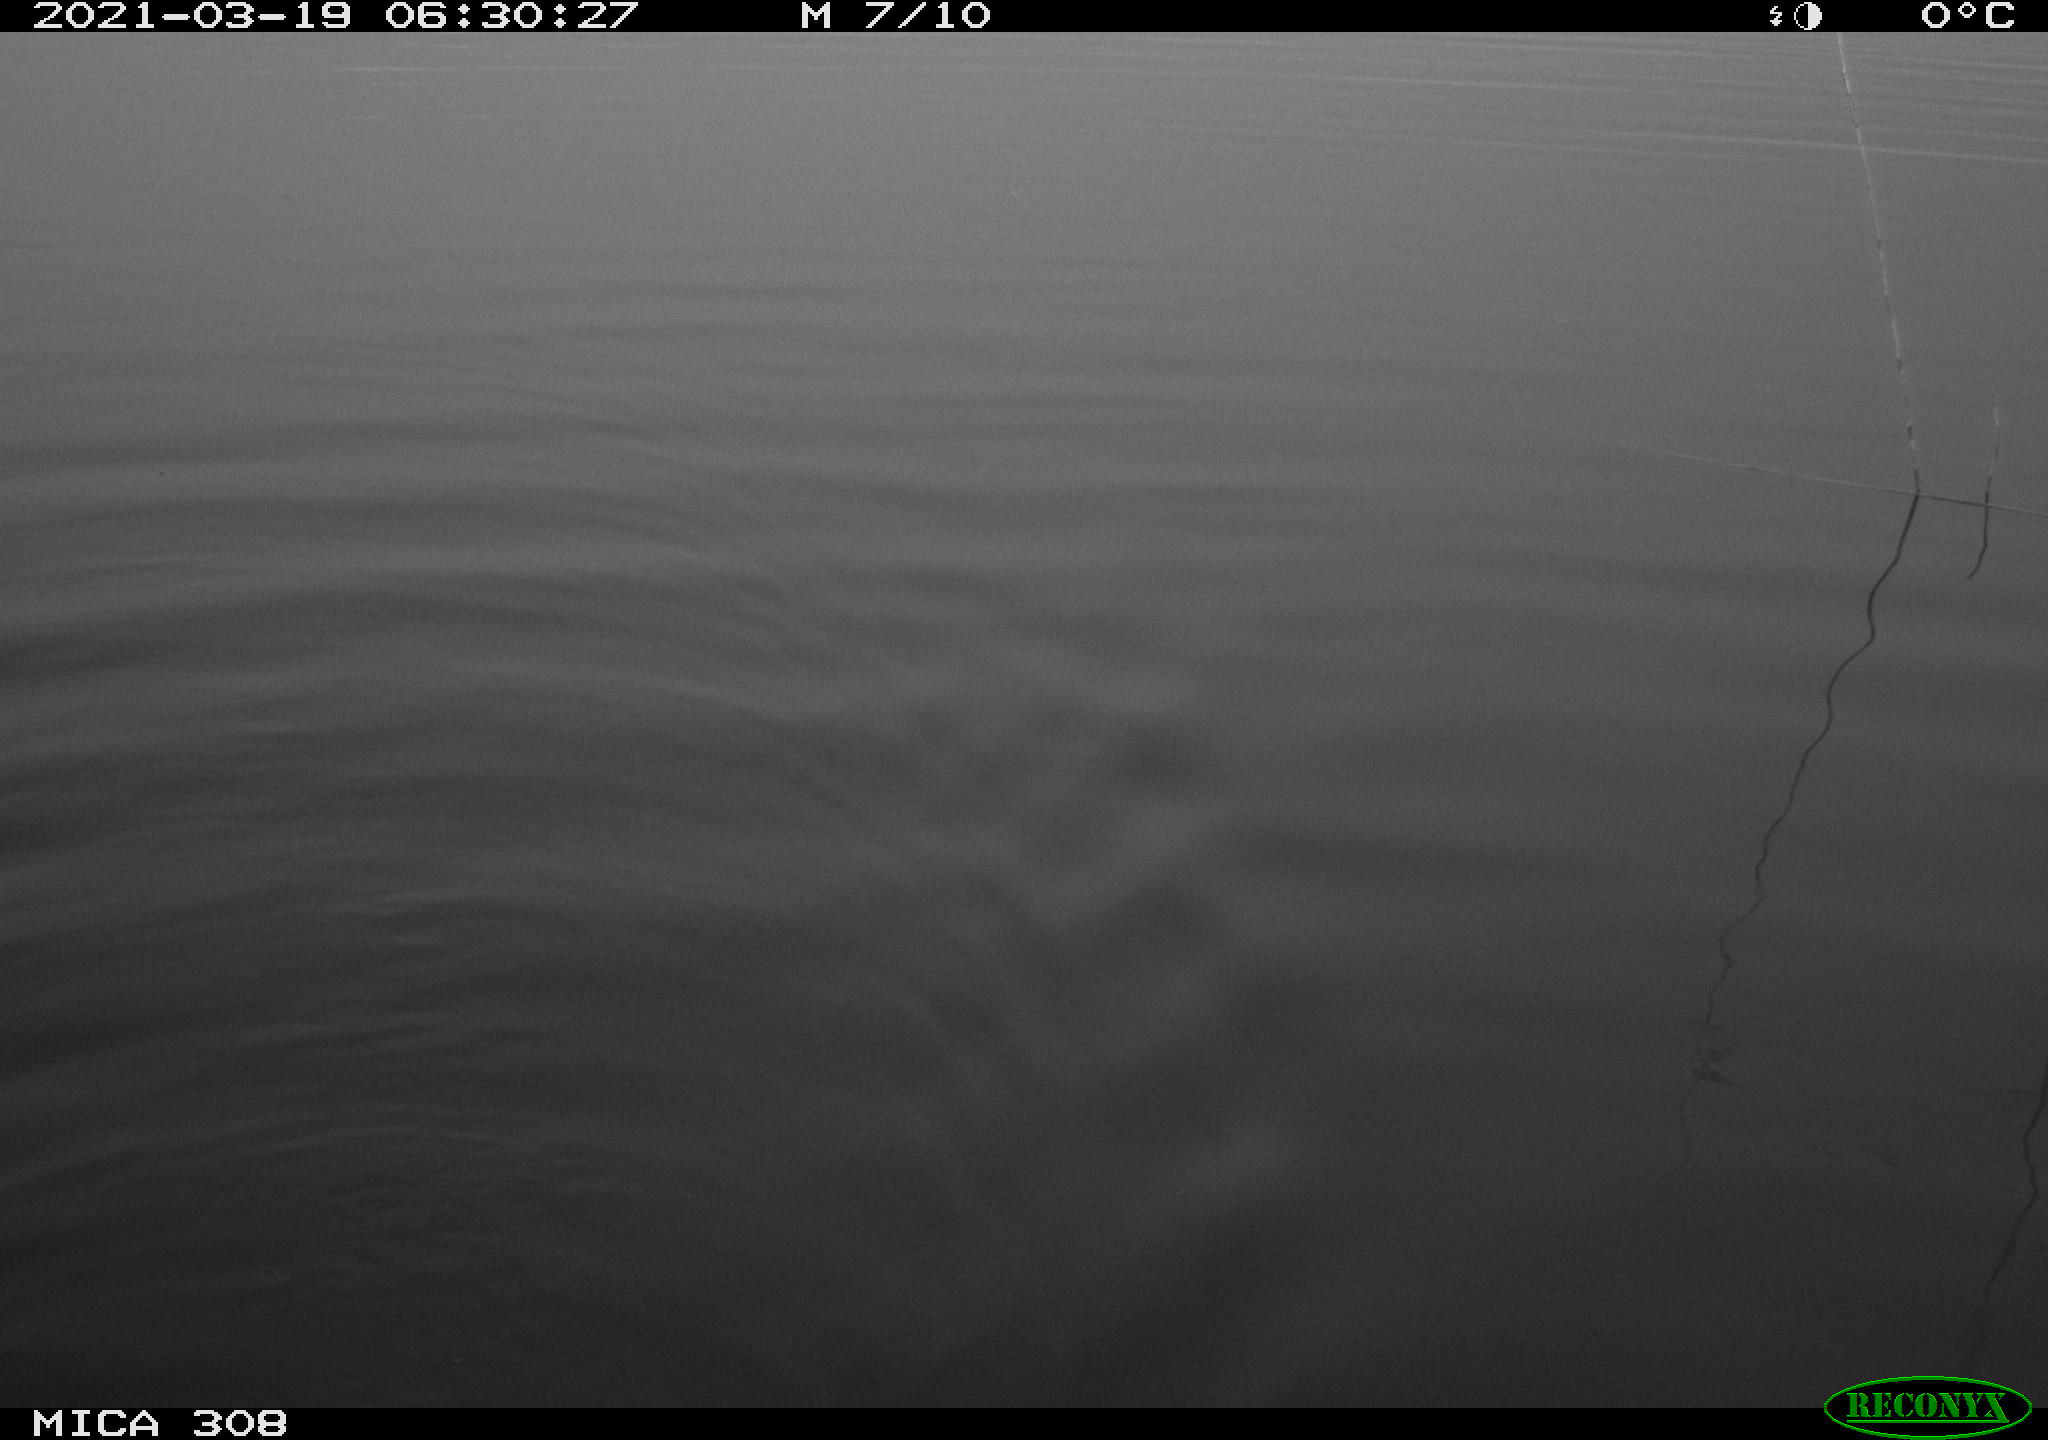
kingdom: Animalia
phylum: Chordata
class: Mammalia
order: Rodentia
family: Cricetidae
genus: Ondatra
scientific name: Ondatra zibethicus
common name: Muskrat
